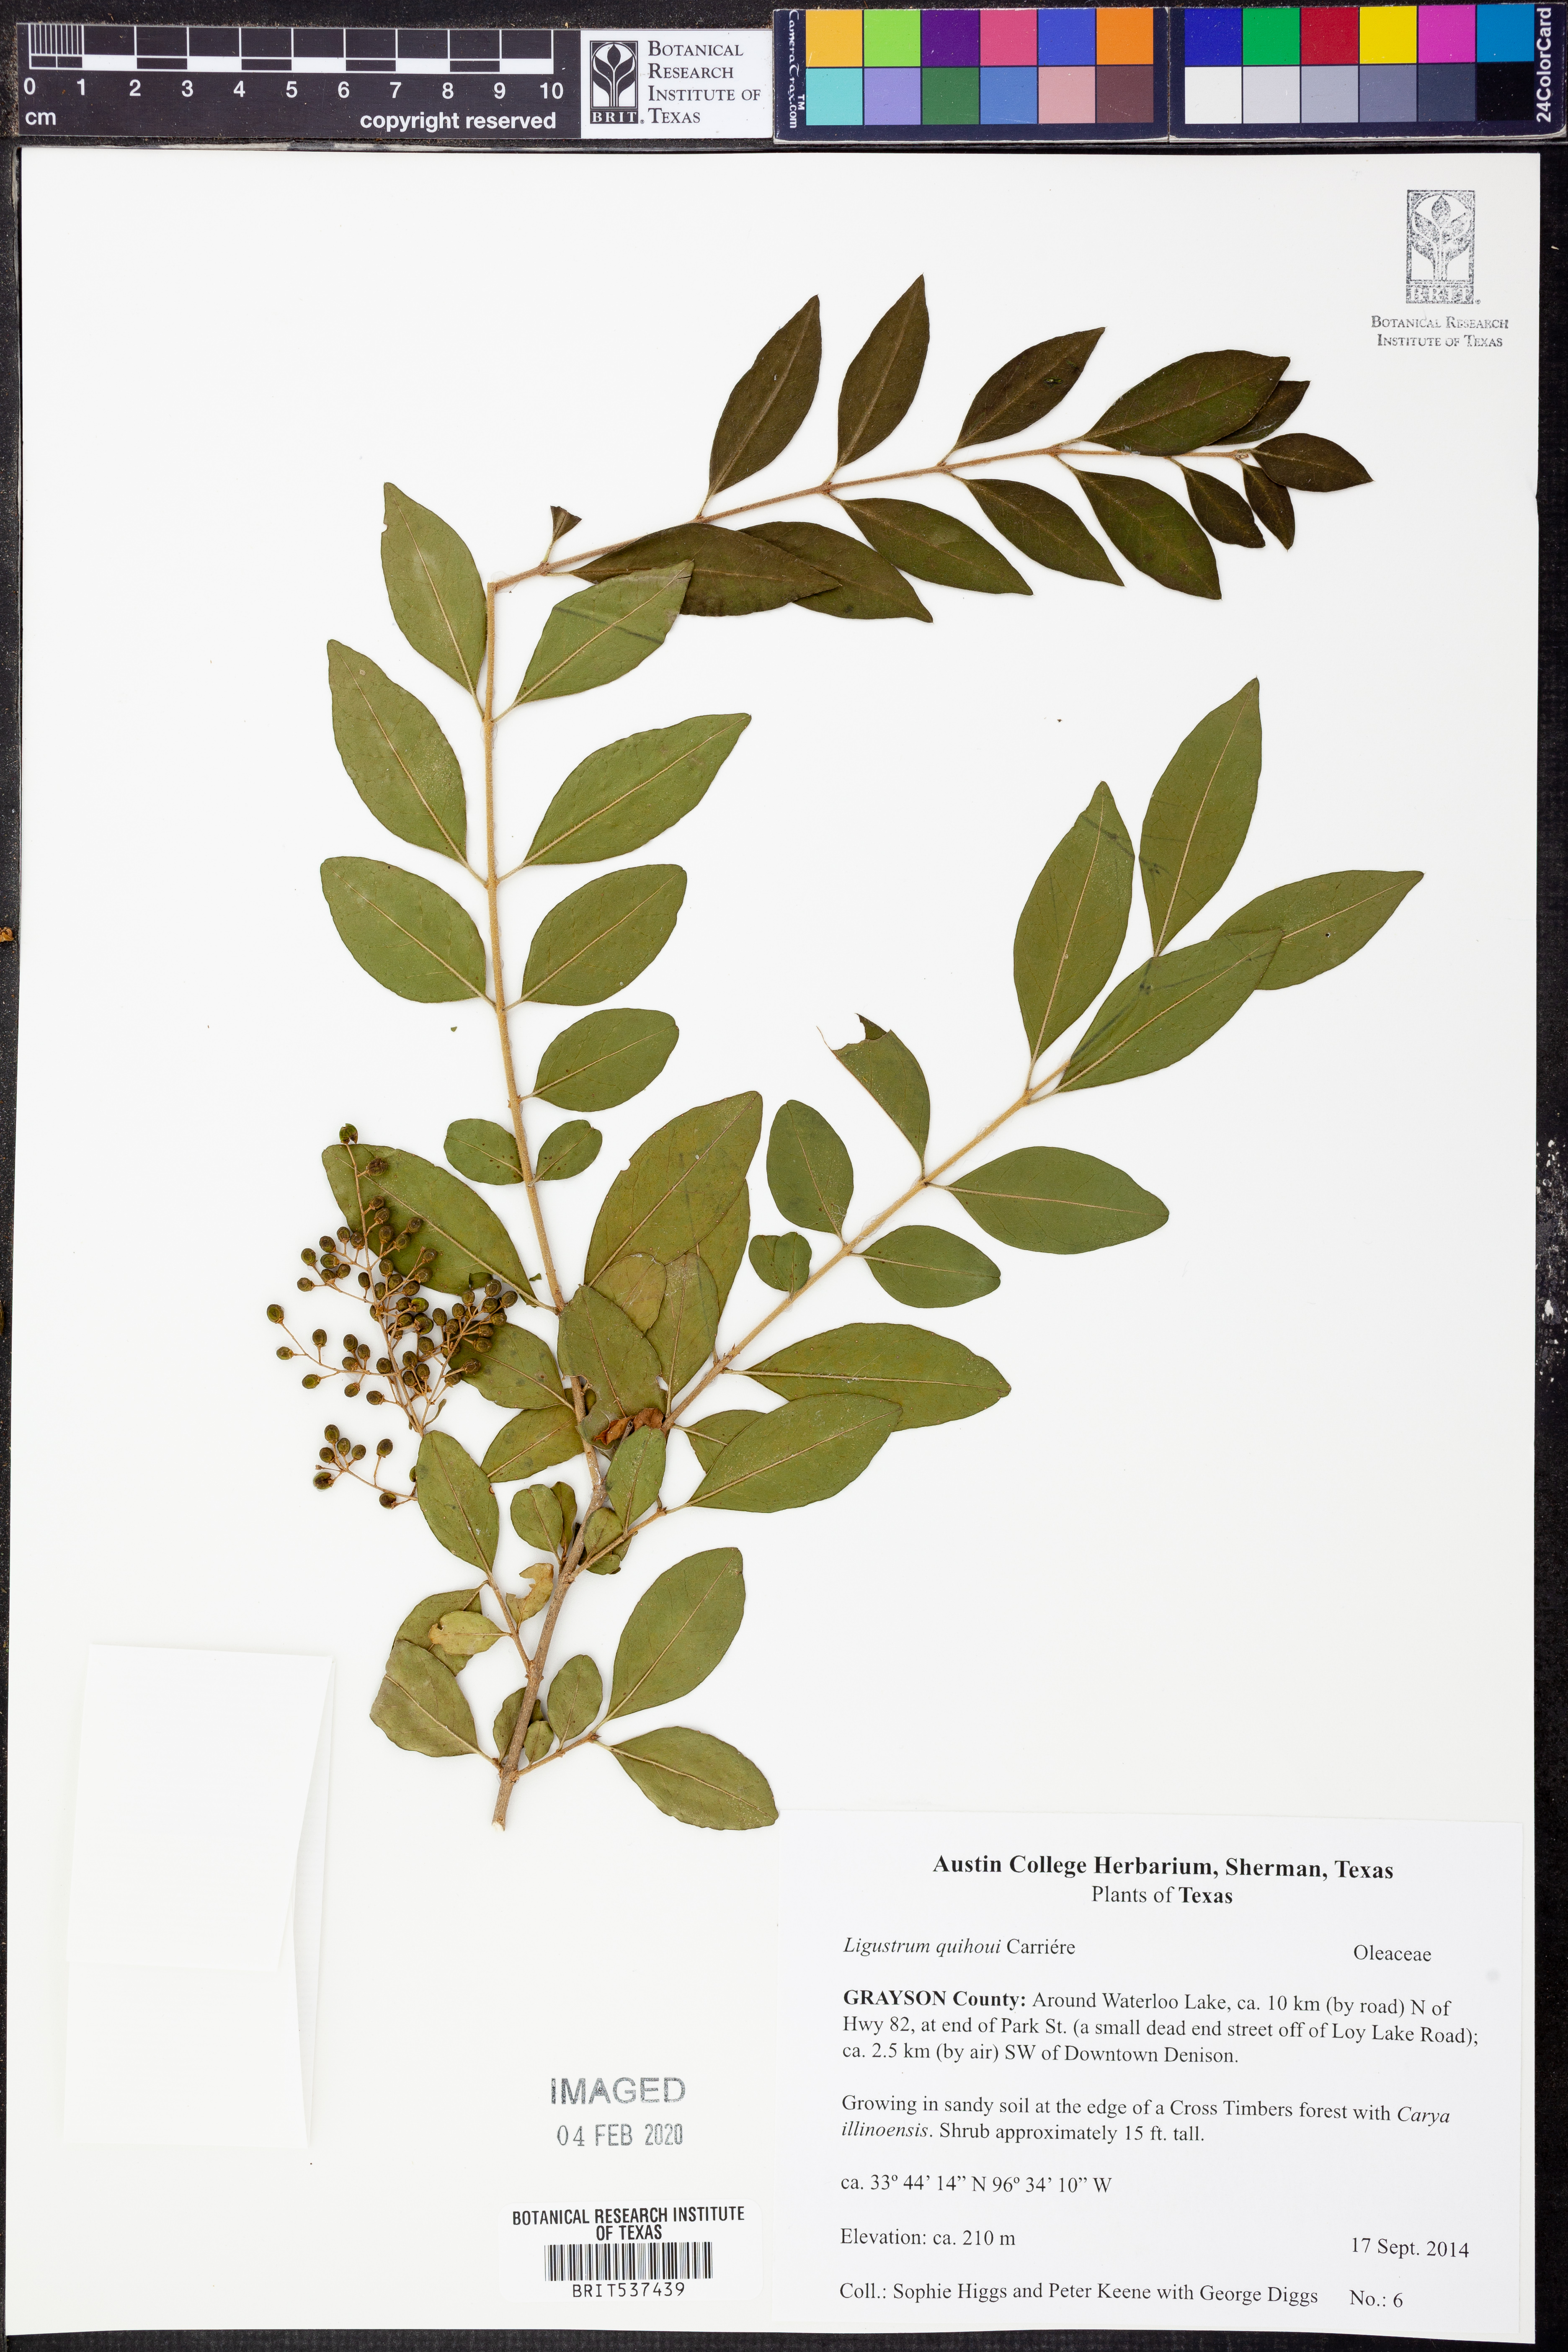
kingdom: Plantae
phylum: Tracheophyta
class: Magnoliopsida
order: Lamiales
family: Oleaceae
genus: Ligustrum
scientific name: Ligustrum quihoui
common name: Waxyleaf privet
